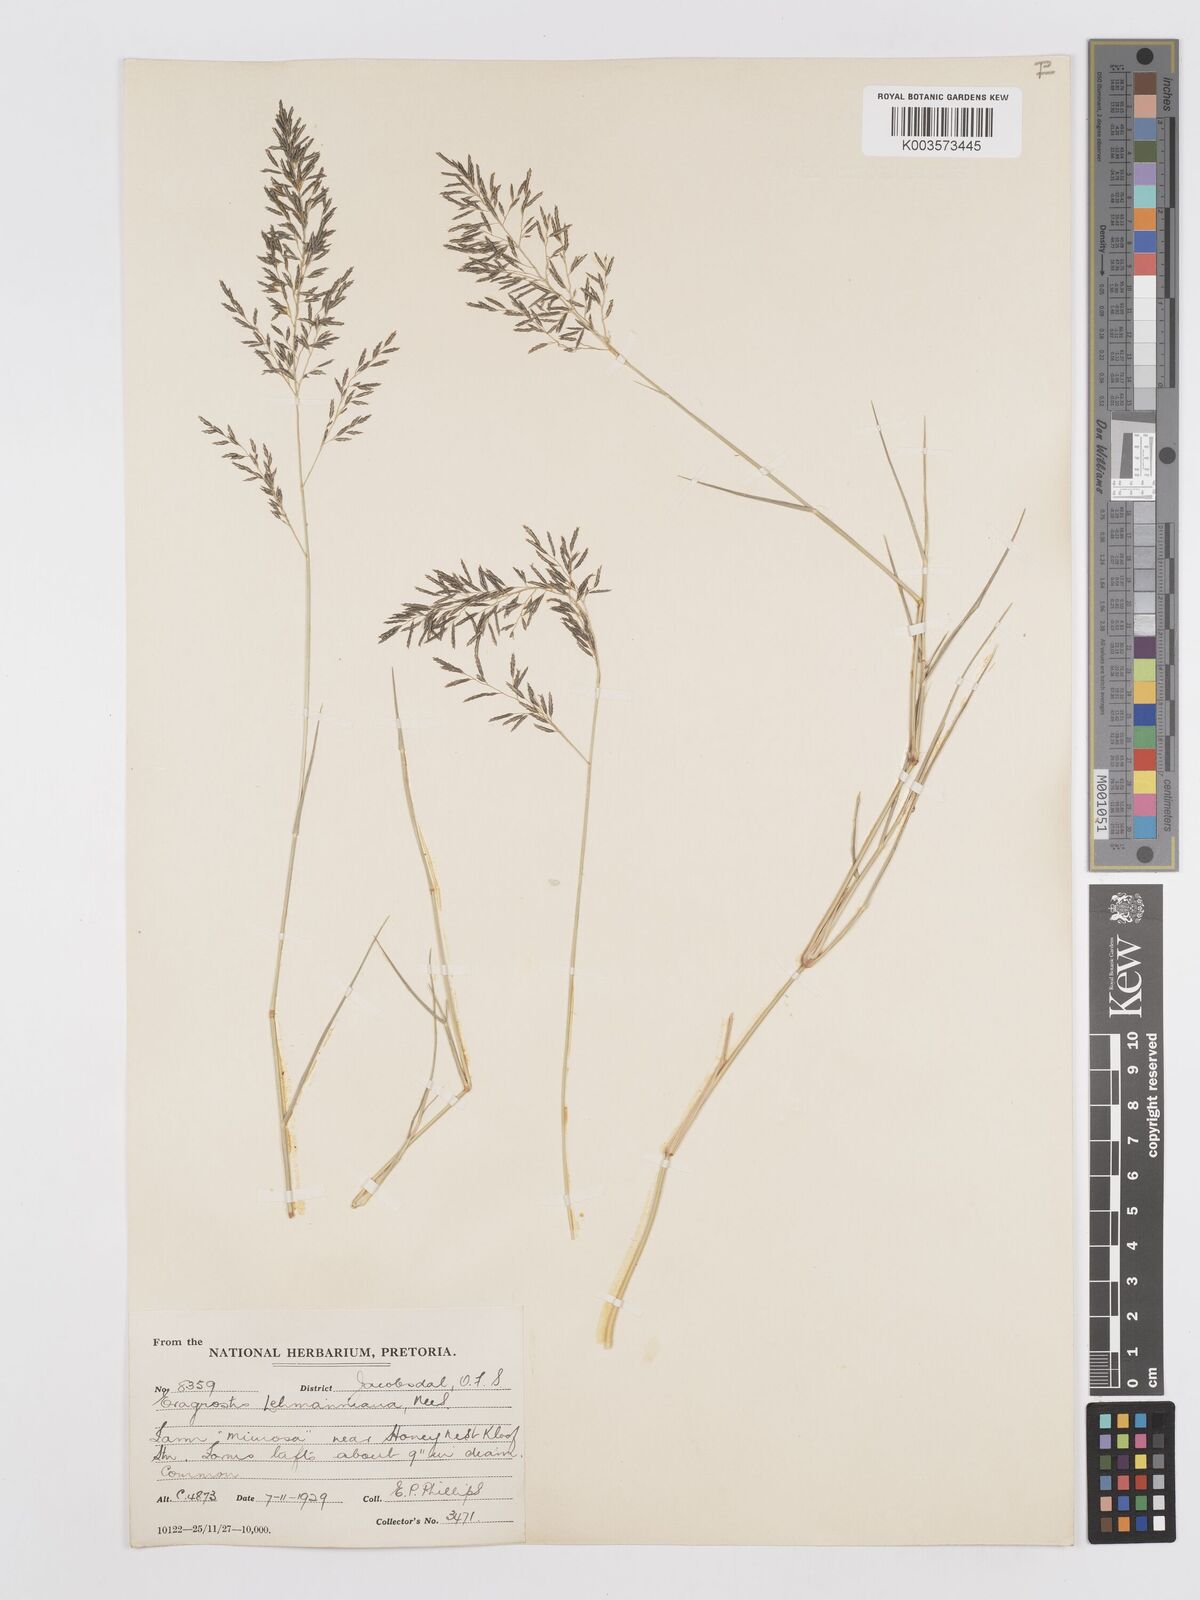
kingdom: Plantae
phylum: Tracheophyta
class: Liliopsida
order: Poales
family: Poaceae
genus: Eragrostis
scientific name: Eragrostis lehmanniana
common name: Lehmann lovegrass
